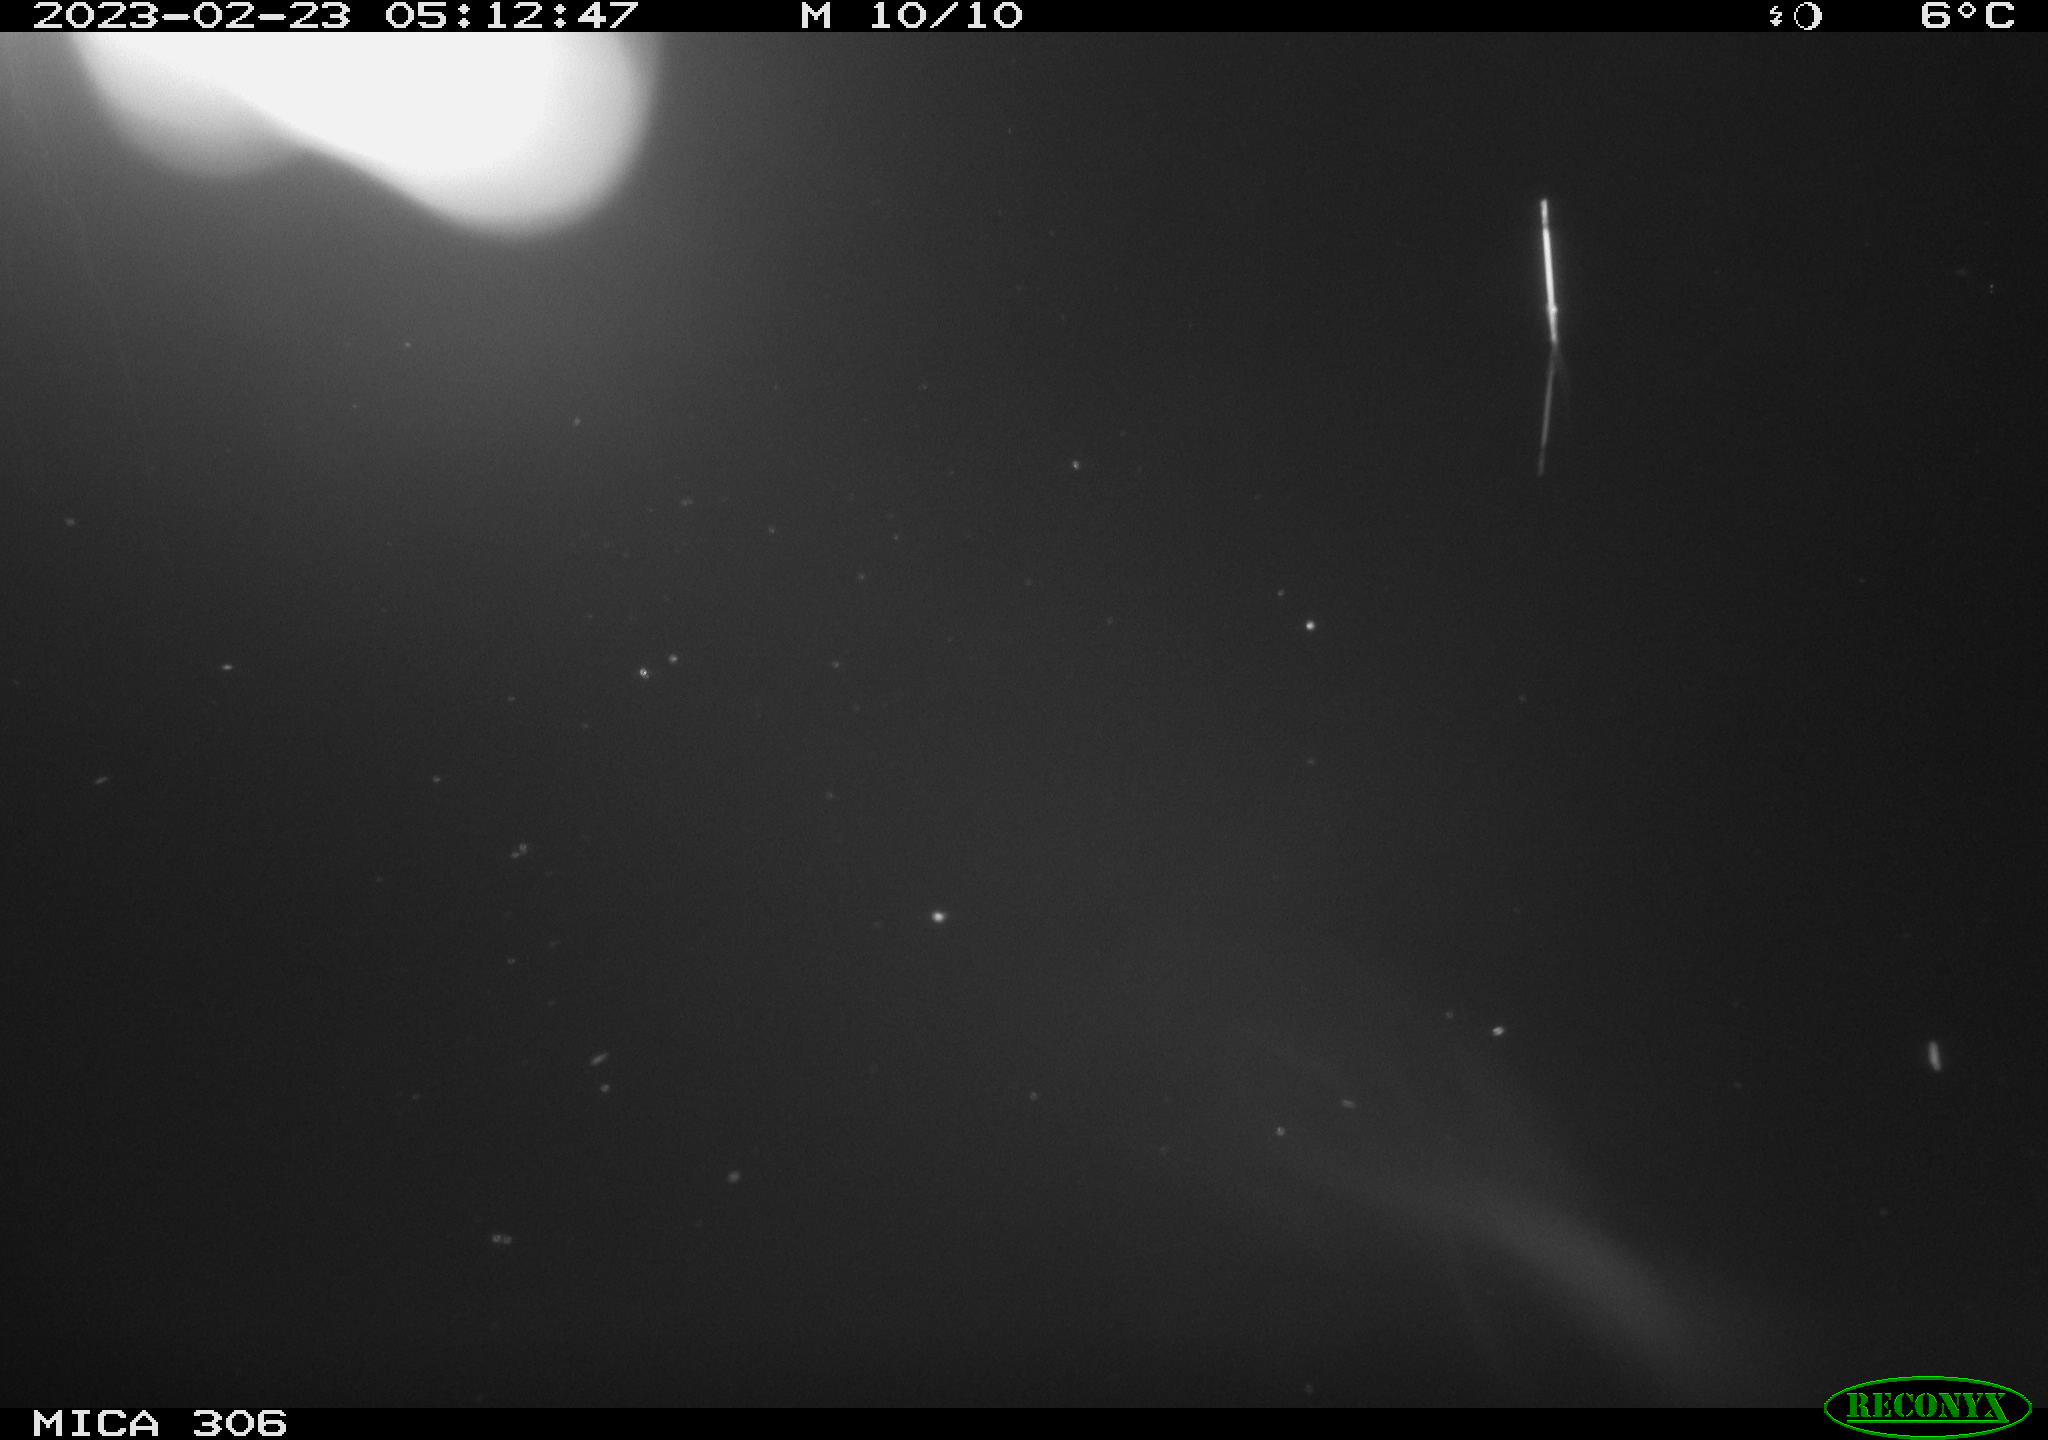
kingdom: Animalia
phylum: Chordata
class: Mammalia
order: Rodentia
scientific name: Rodentia
